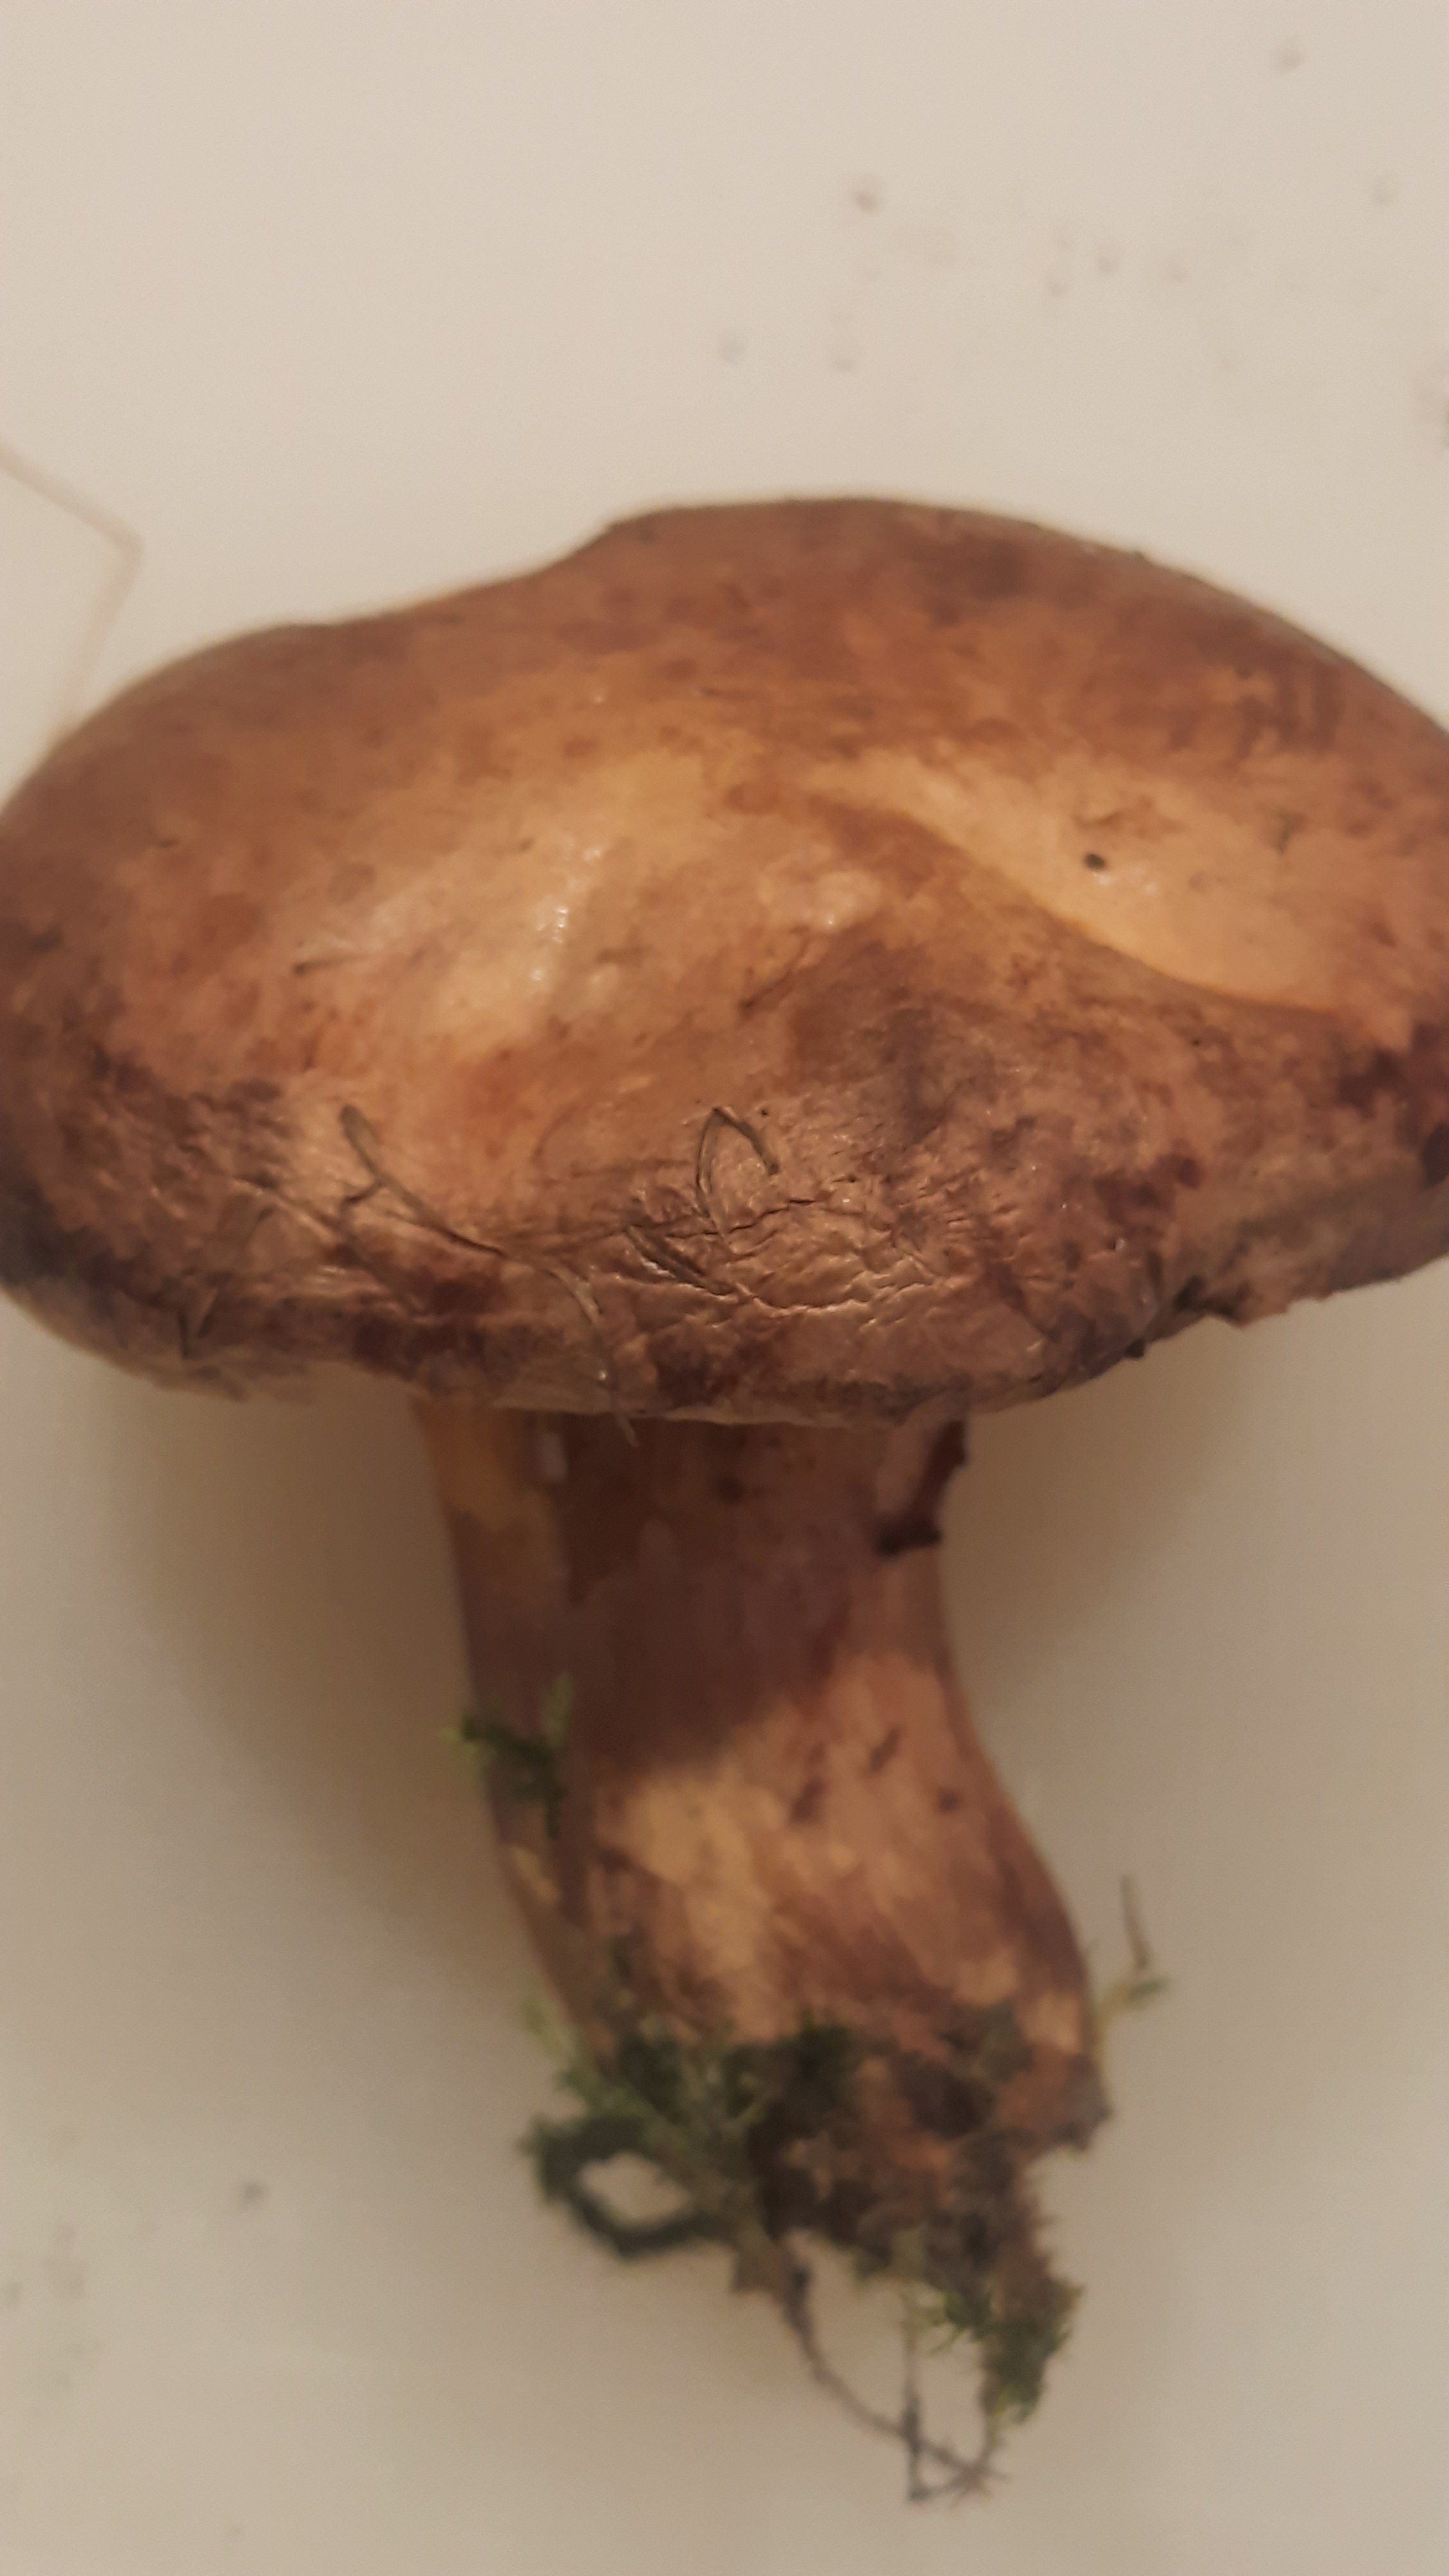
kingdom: Fungi
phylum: Basidiomycota
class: Agaricomycetes
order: Boletales
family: Paxillaceae
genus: Paxillus
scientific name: Paxillus
